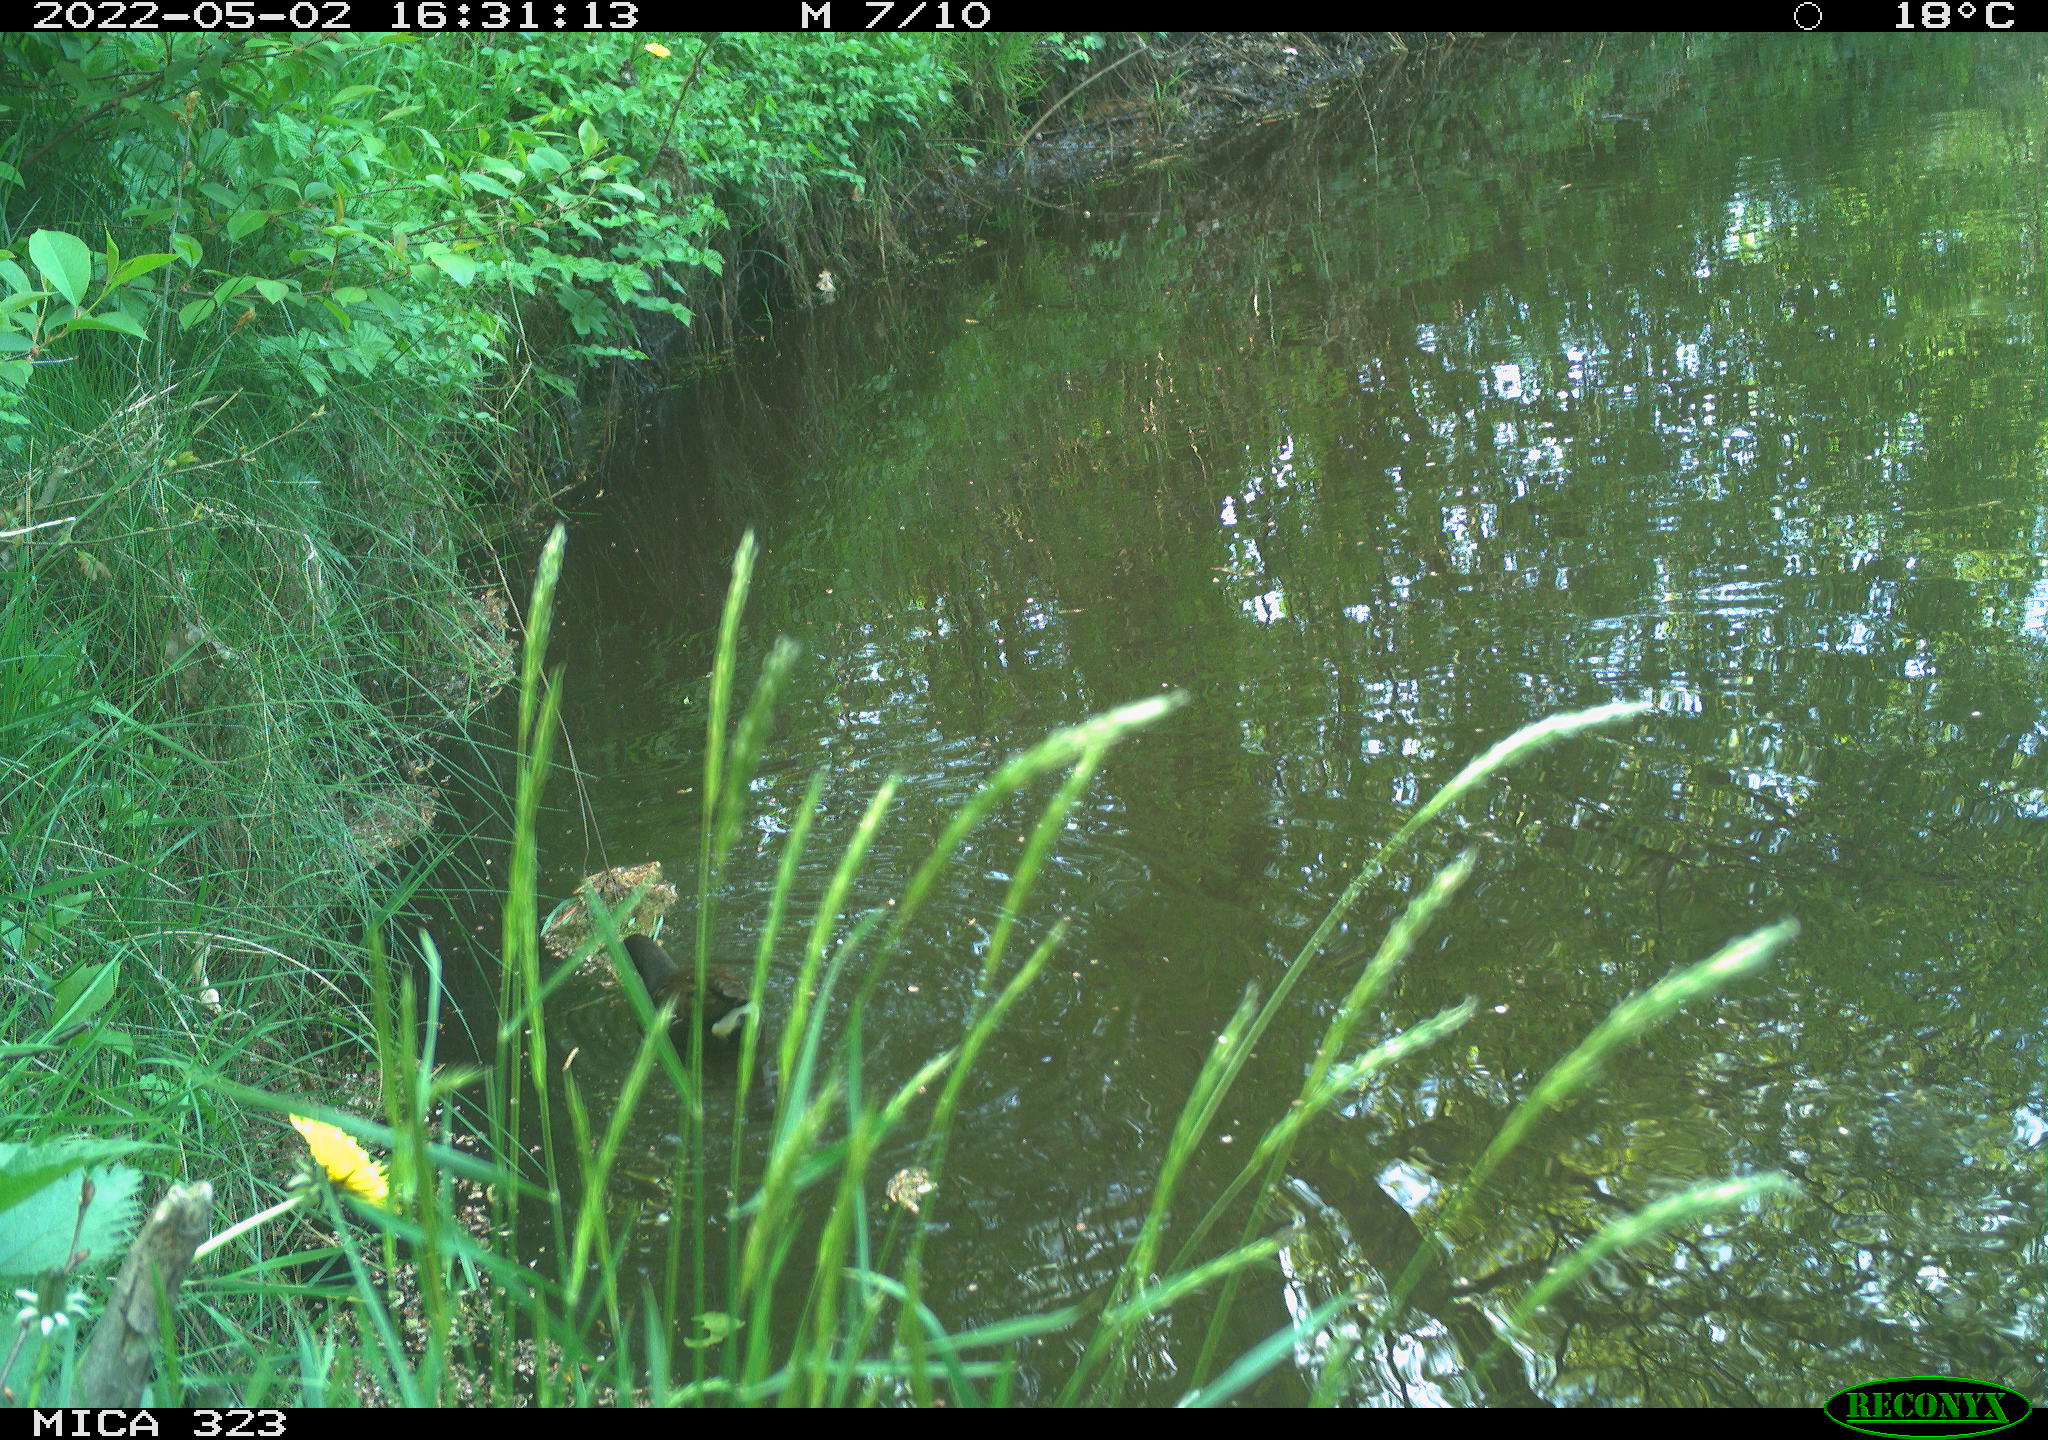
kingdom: Animalia
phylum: Chordata
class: Aves
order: Gruiformes
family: Rallidae
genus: Gallinula
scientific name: Gallinula chloropus
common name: Common moorhen
